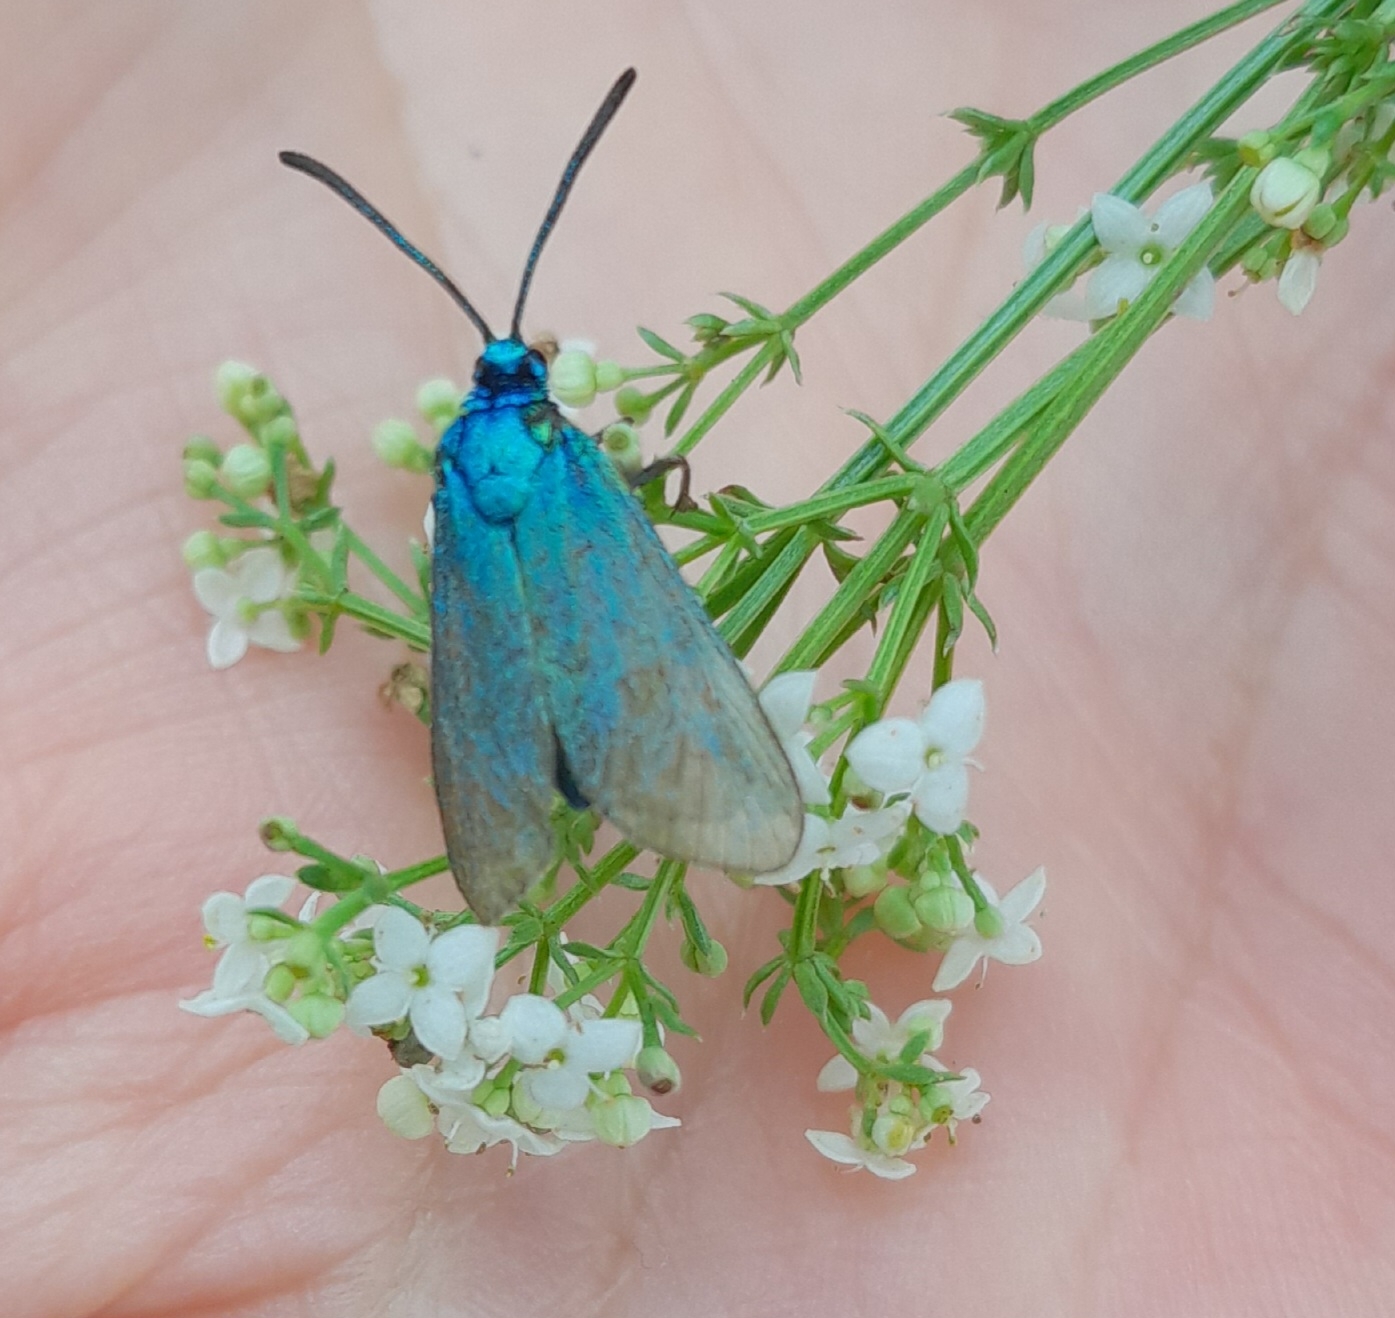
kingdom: Animalia
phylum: Arthropoda
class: Insecta
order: Lepidoptera
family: Zygaenidae
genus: Adscita
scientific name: Adscita statices
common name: Metalvinge
